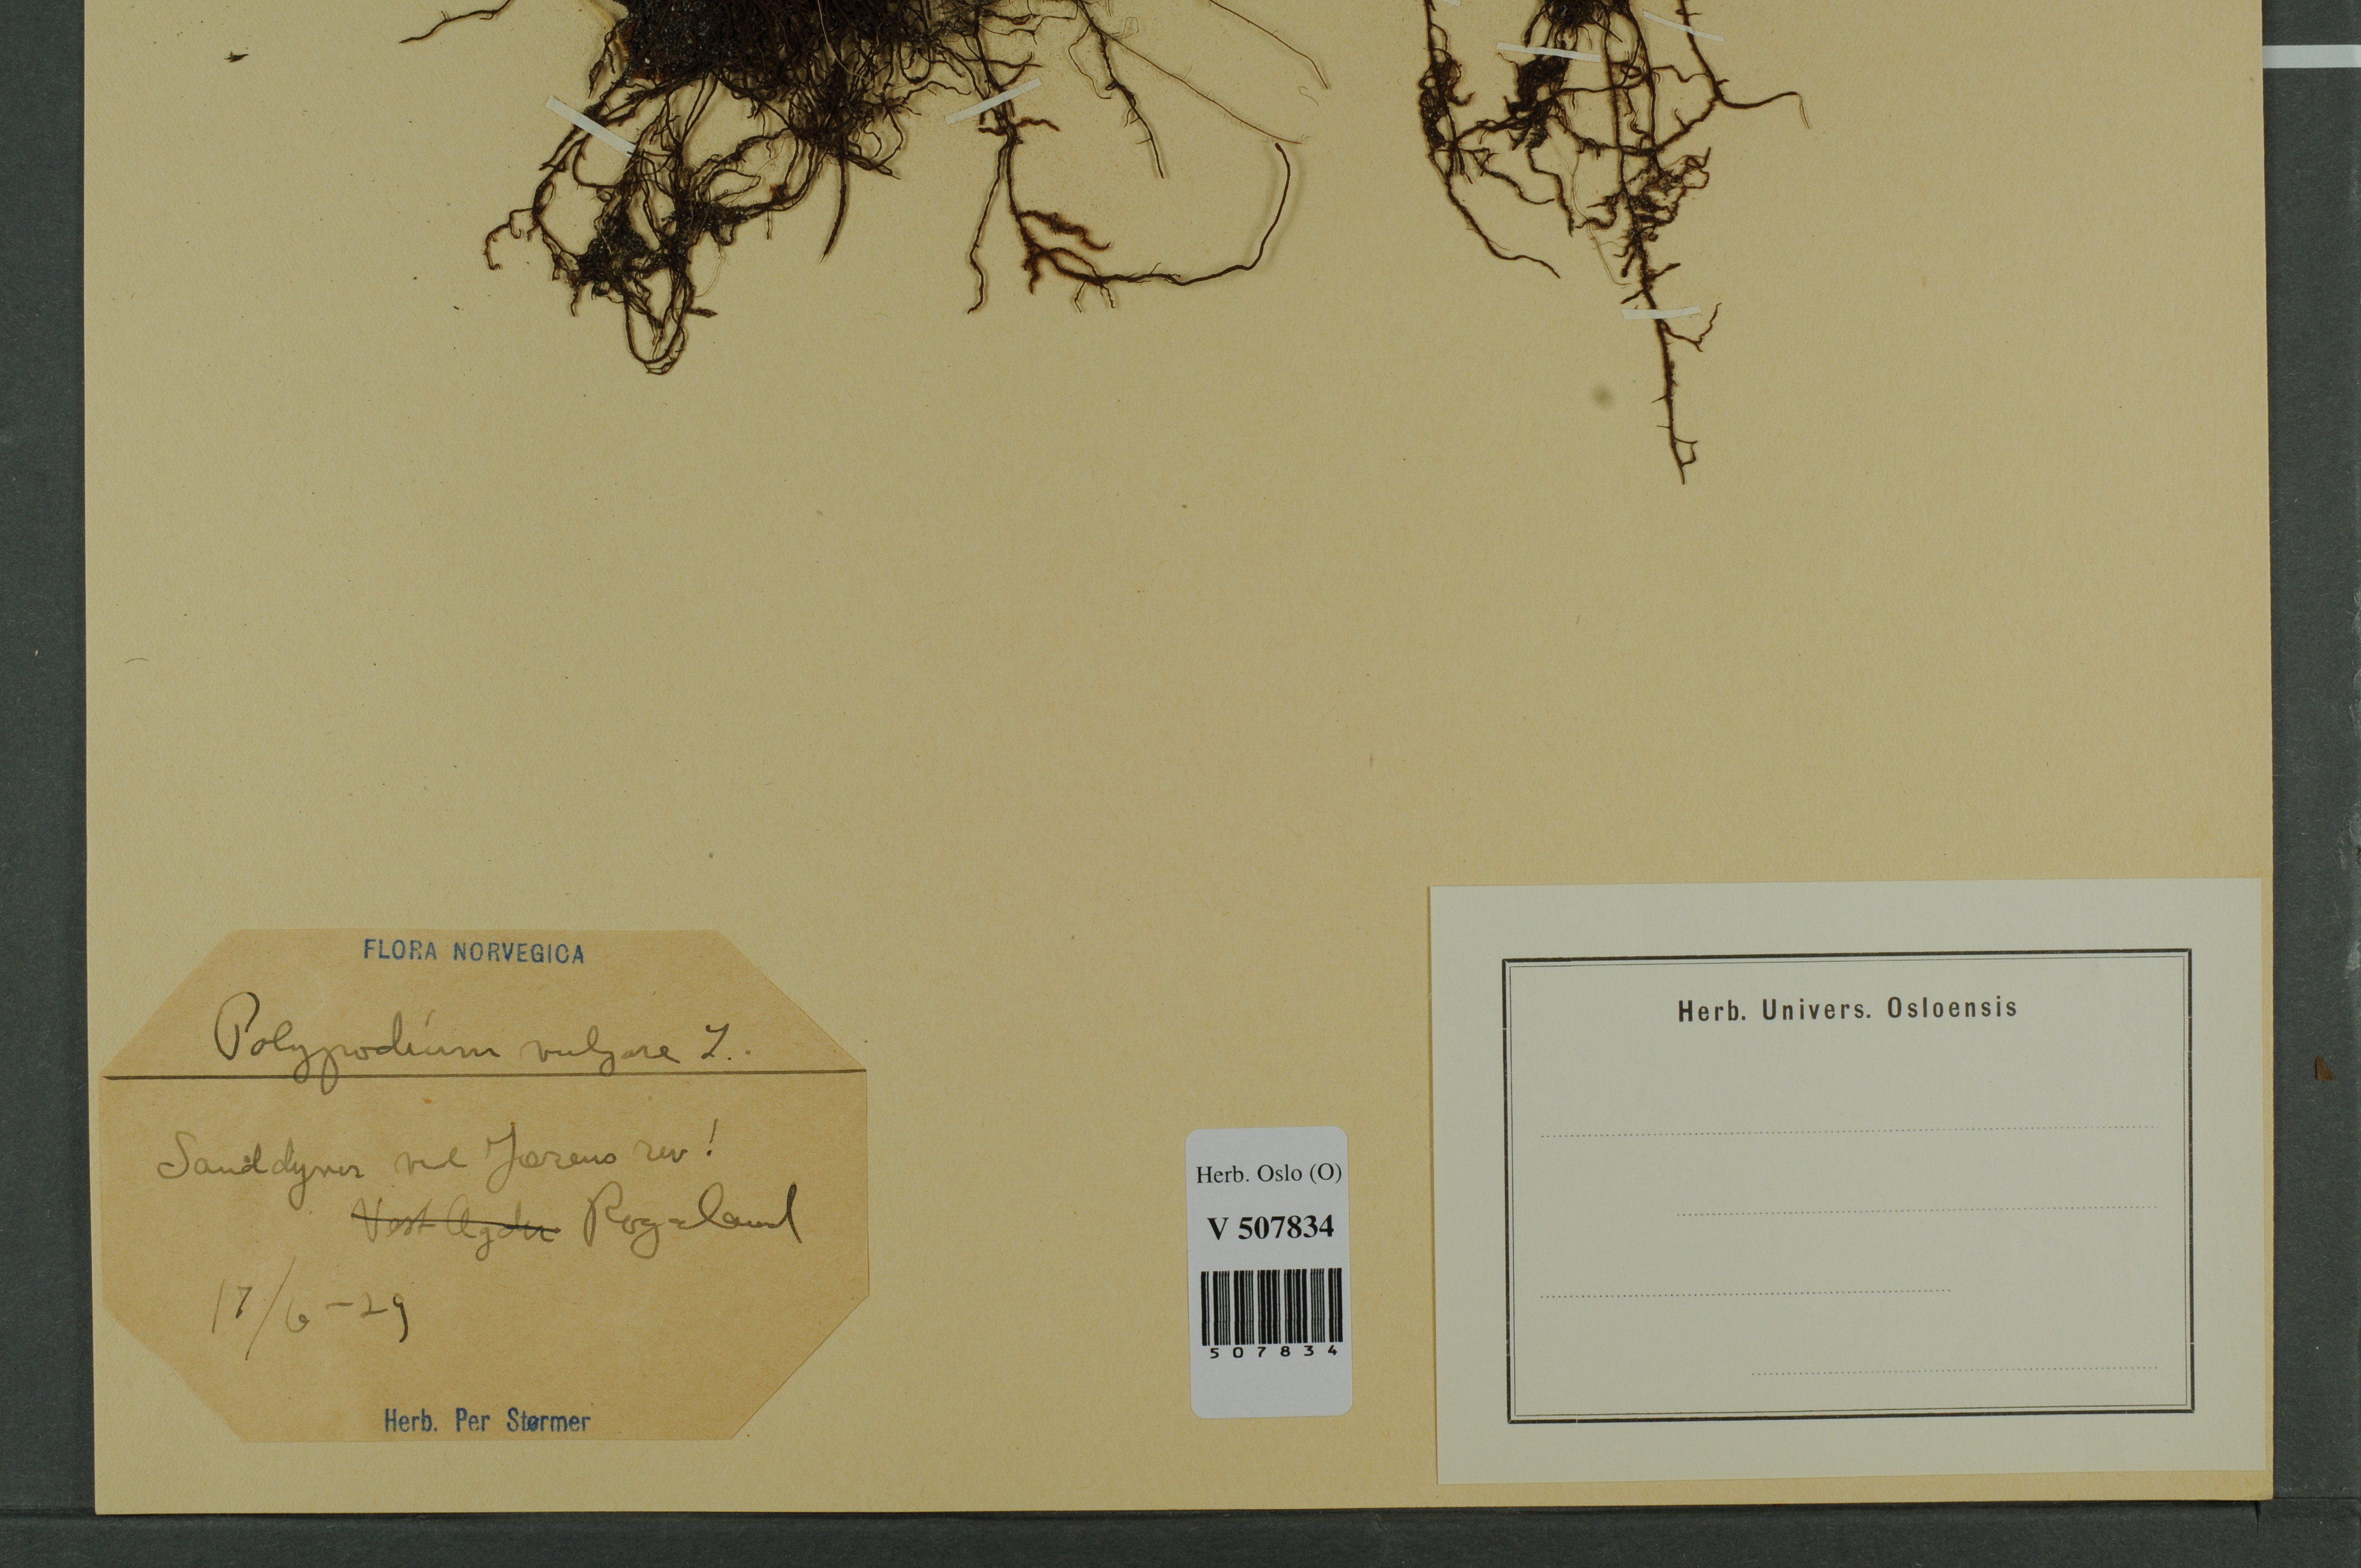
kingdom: Plantae
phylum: Tracheophyta
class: Polypodiopsida
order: Polypodiales
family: Polypodiaceae
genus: Polypodium
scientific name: Polypodium vulgare
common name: Common polypody
